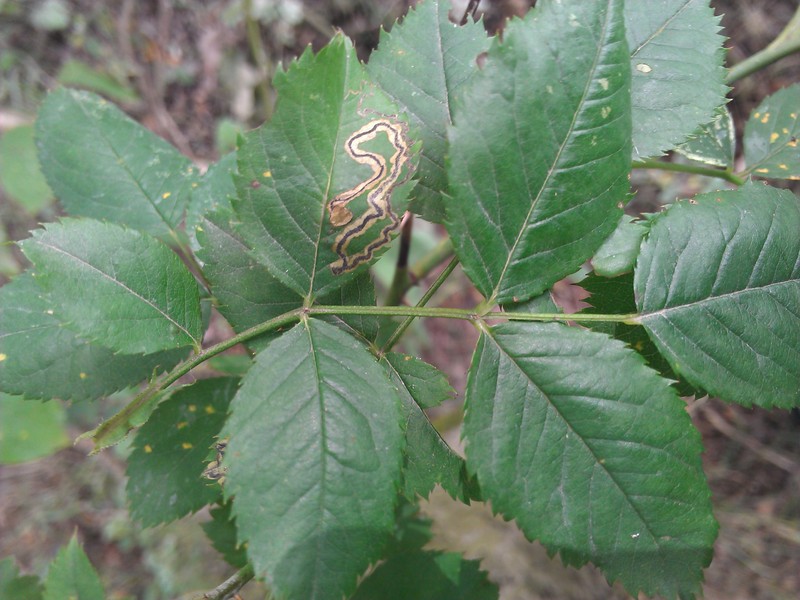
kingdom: Animalia
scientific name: Animalia
